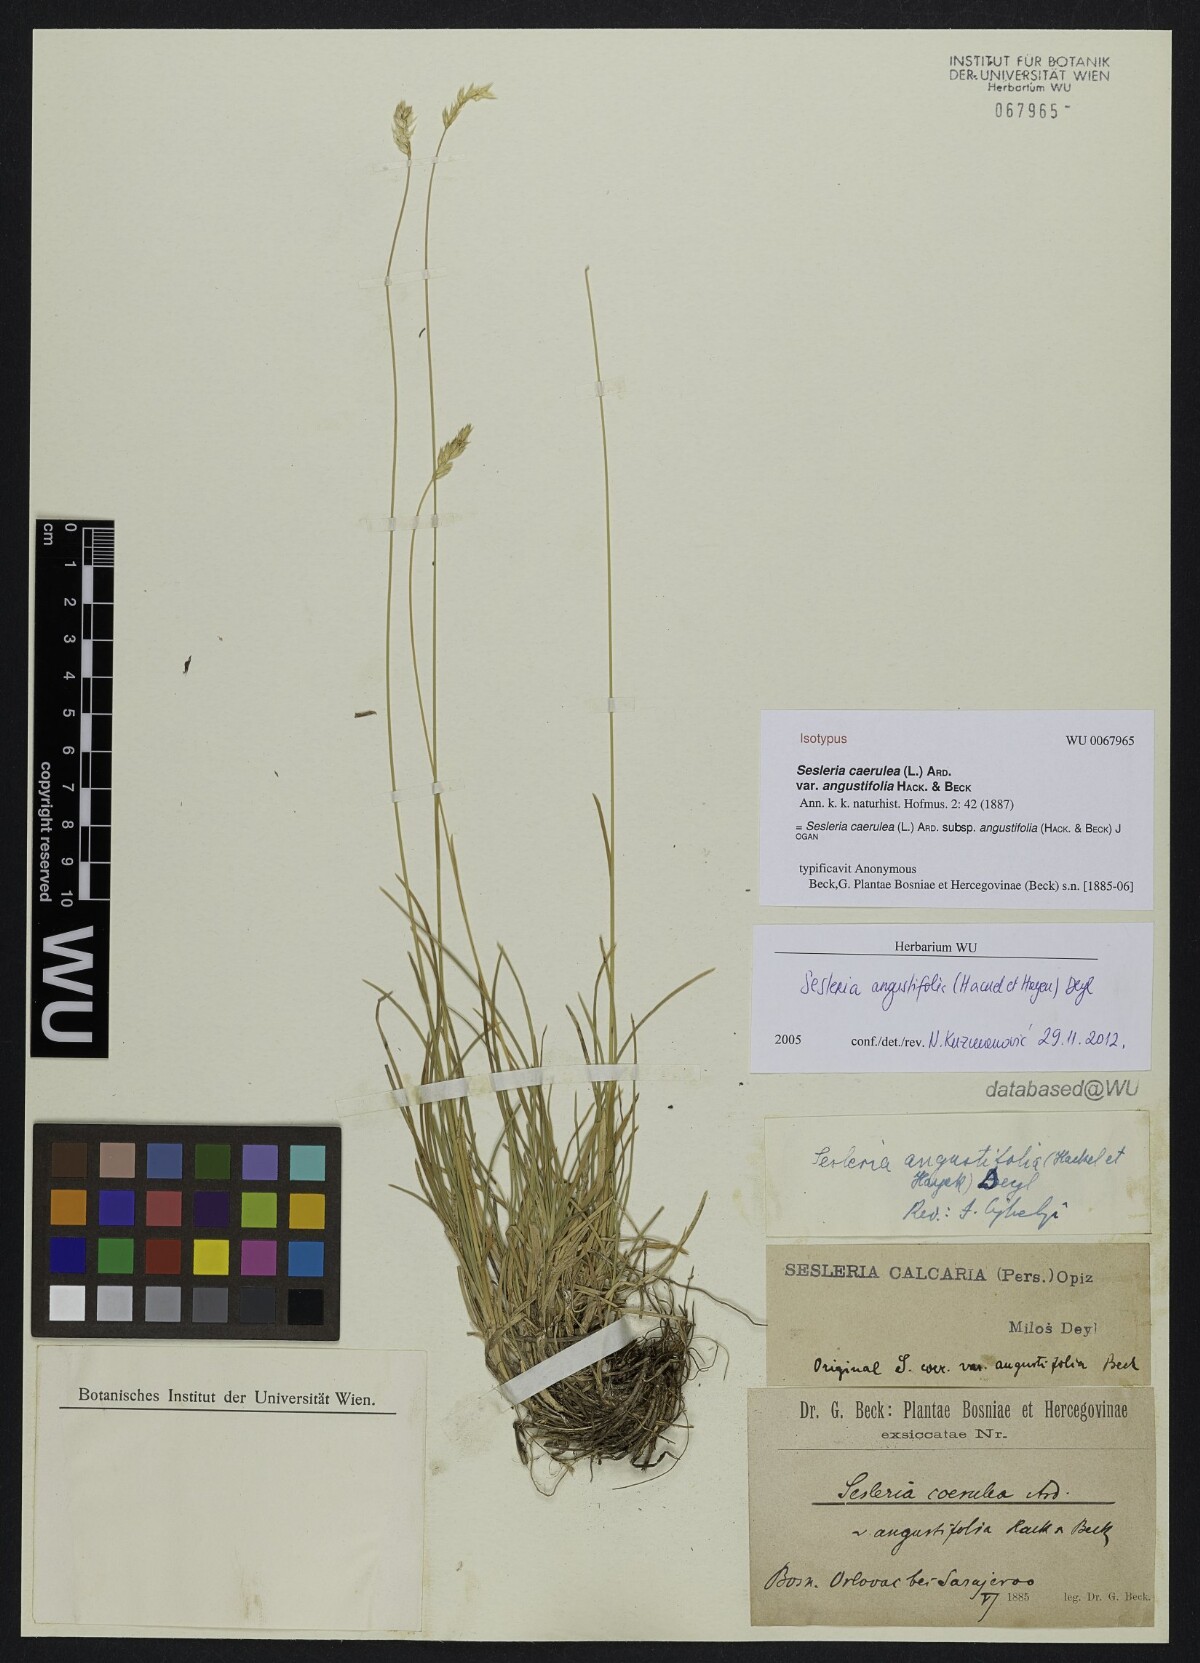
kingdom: Plantae
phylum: Tracheophyta
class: Liliopsida
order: Poales
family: Poaceae
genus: Sesleria
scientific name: Sesleria angustifolia
